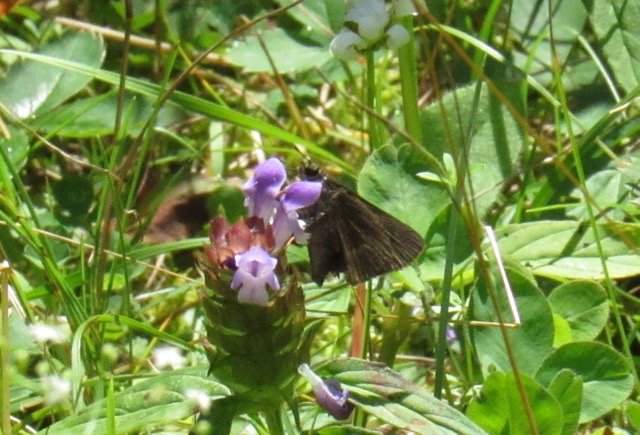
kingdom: Animalia
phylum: Arthropoda
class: Insecta
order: Lepidoptera
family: Hesperiidae
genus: Polites
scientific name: Polites egeremet
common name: Northern Broken-Dash
